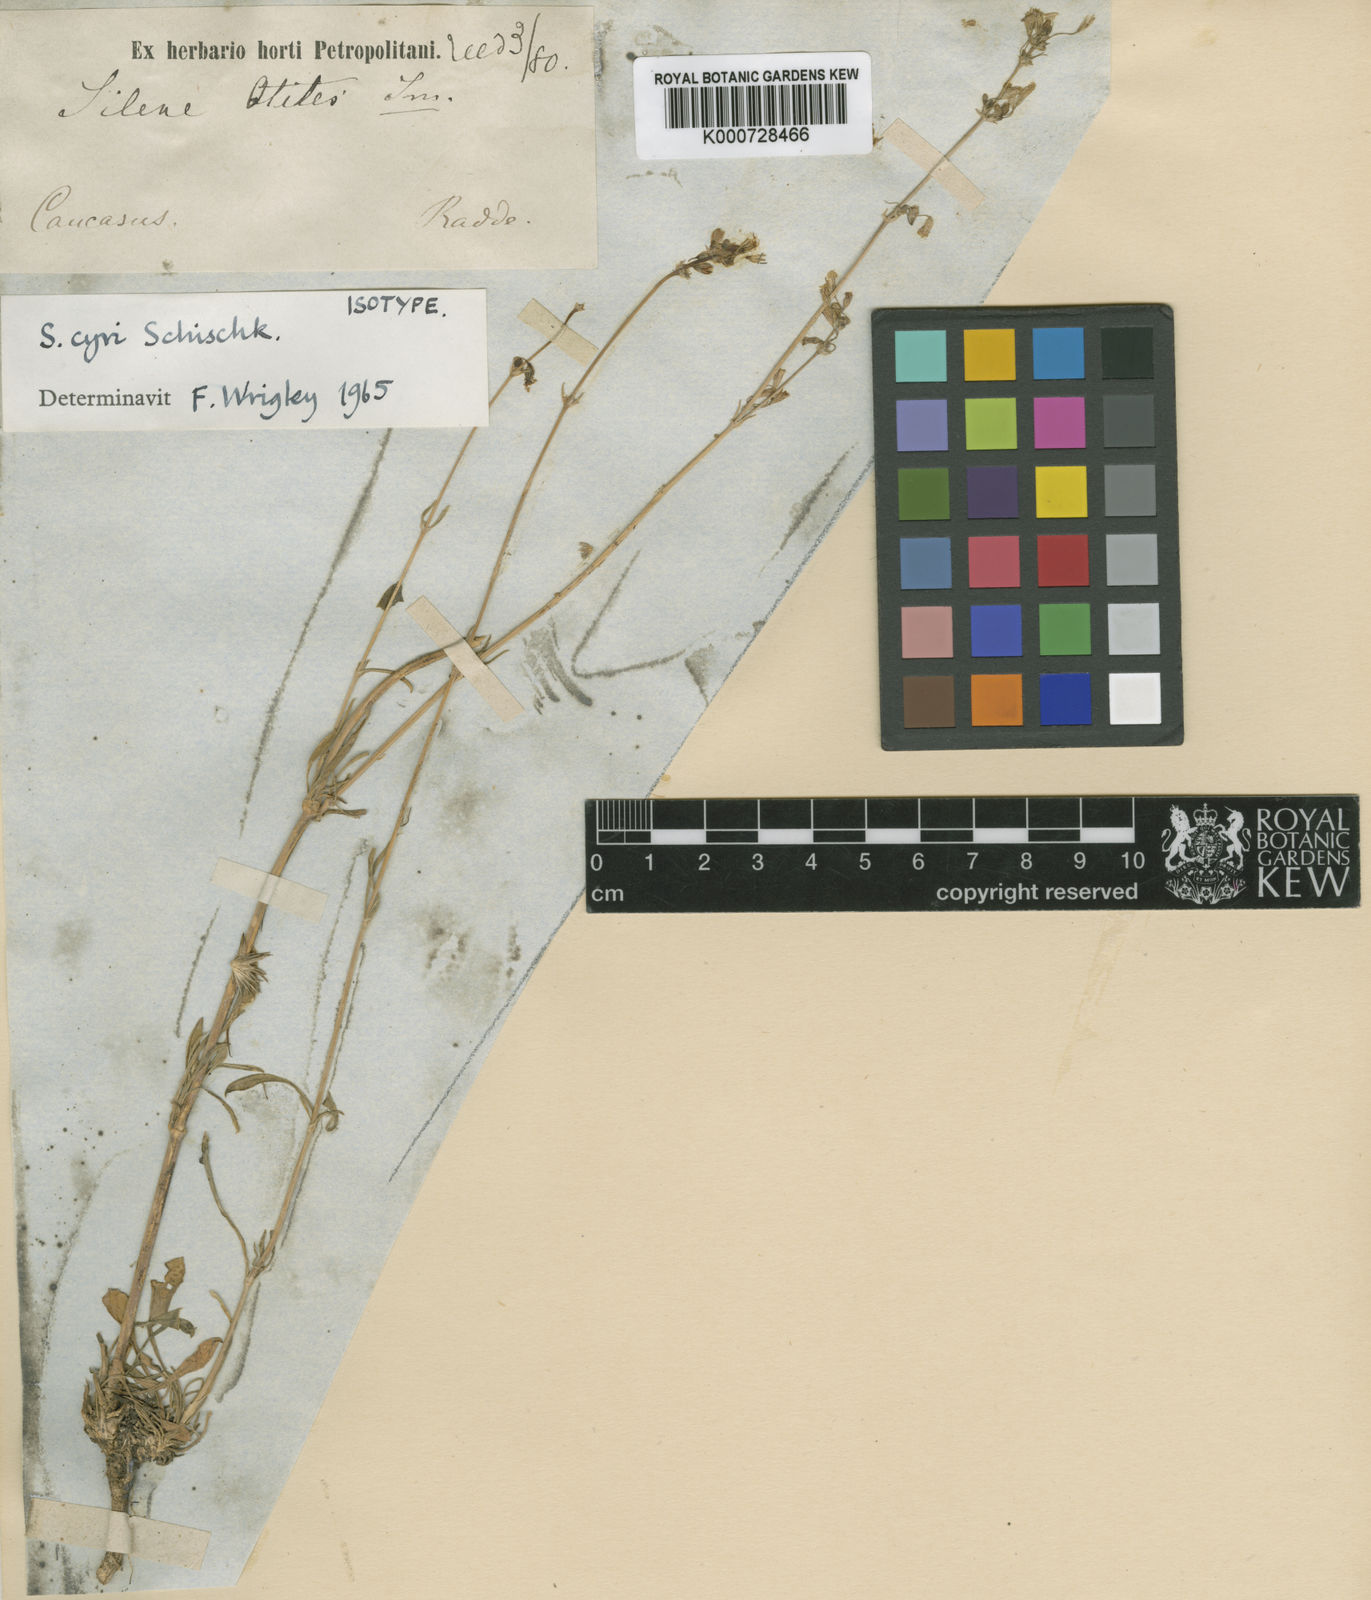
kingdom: Plantae
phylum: Tracheophyta
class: Magnoliopsida
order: Caryophyllales
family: Caryophyllaceae
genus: Silene
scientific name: Silene cyri
